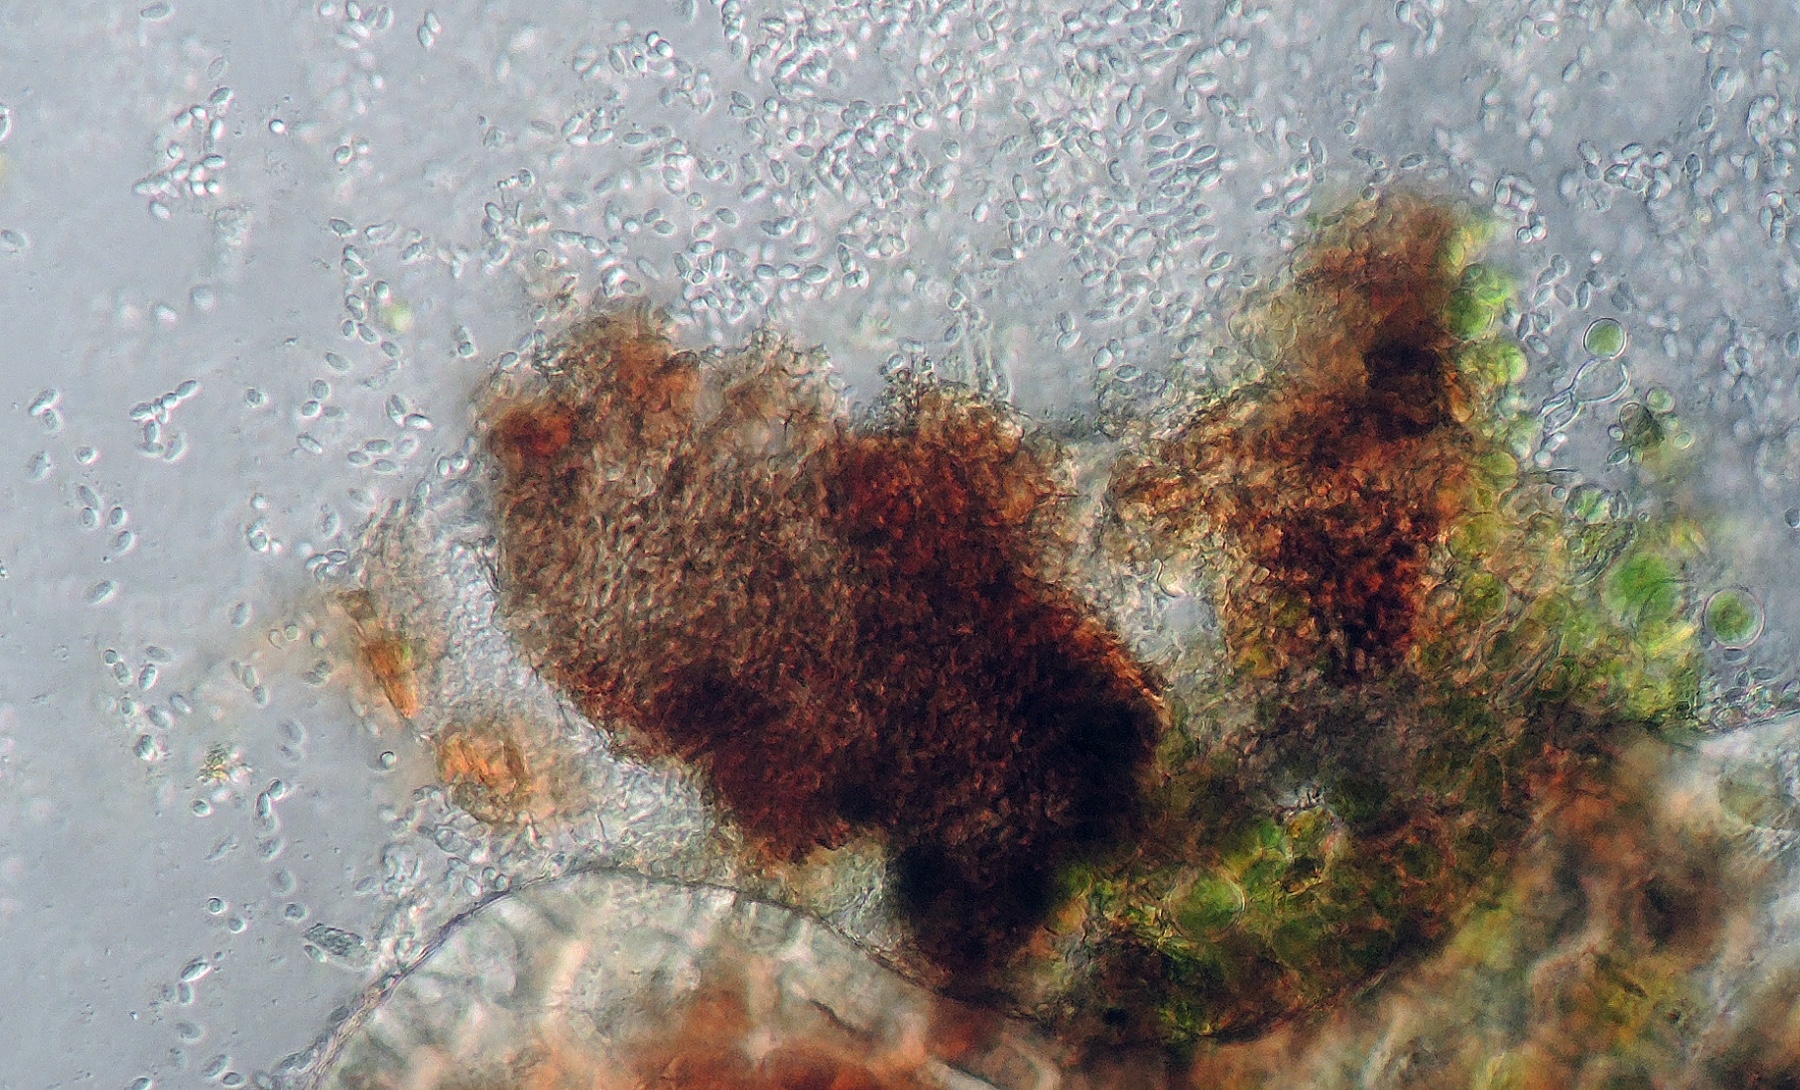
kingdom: Fungi
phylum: Ascomycota
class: Sordariomycetes
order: Diaporthales
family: Diaporthaceae
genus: Phomopsis
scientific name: Phomopsis rhodophila
